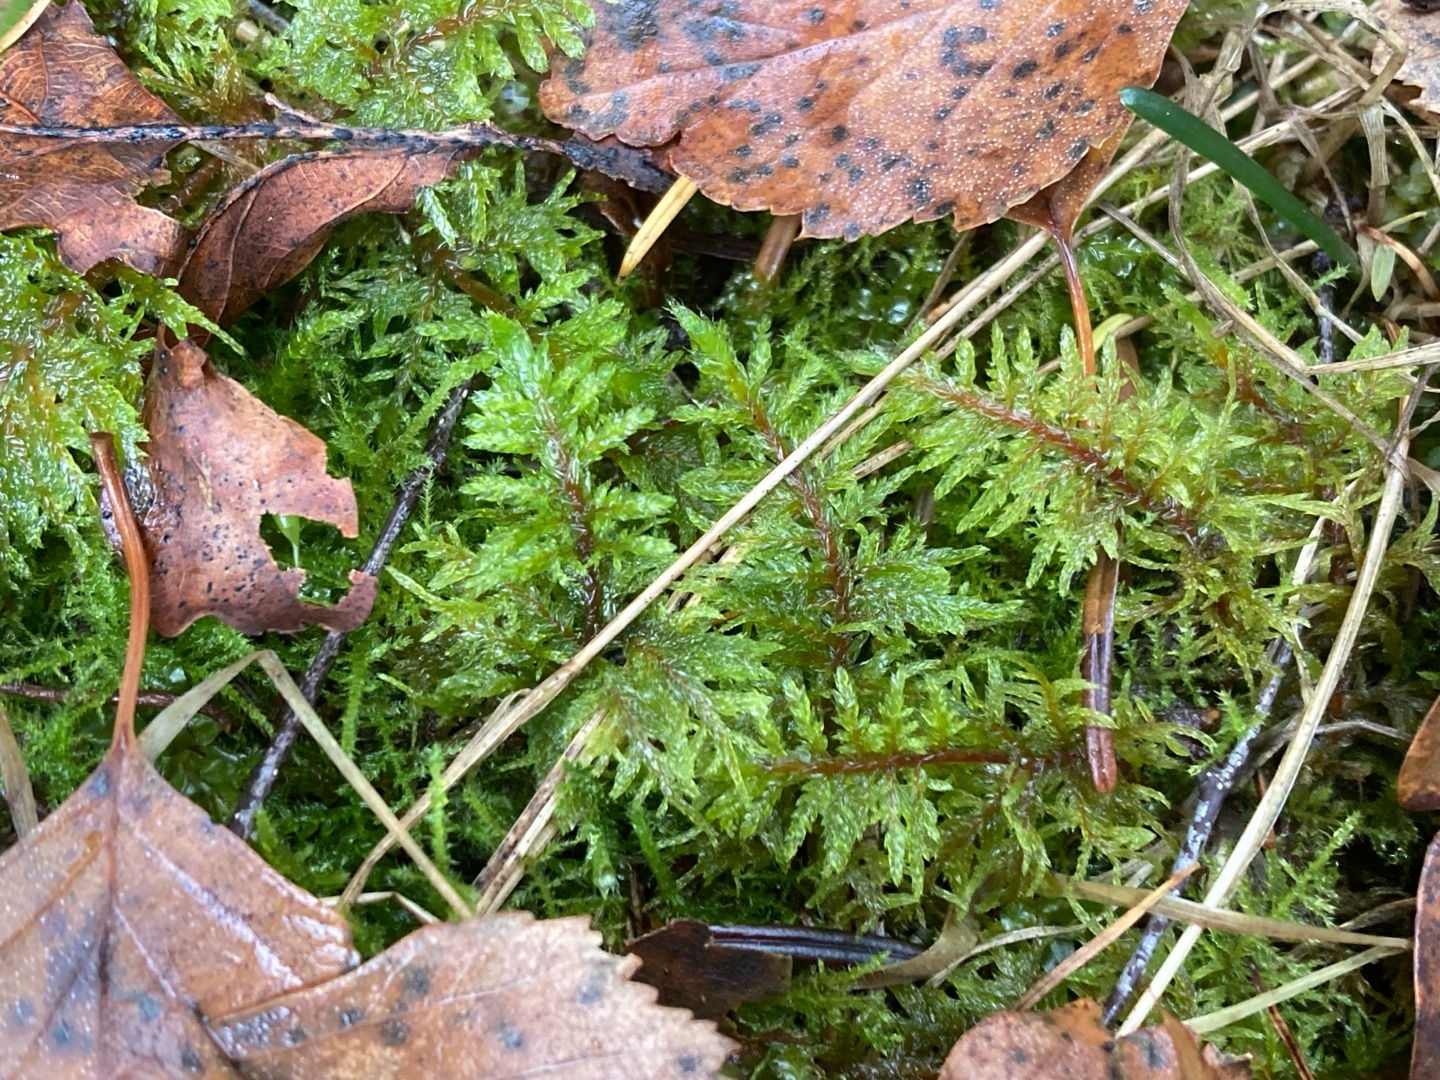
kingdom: Plantae
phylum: Bryophyta
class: Bryopsida
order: Hypnales
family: Hylocomiaceae
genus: Hylocomium
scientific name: Hylocomium splendens
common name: Almindelig etagemos
